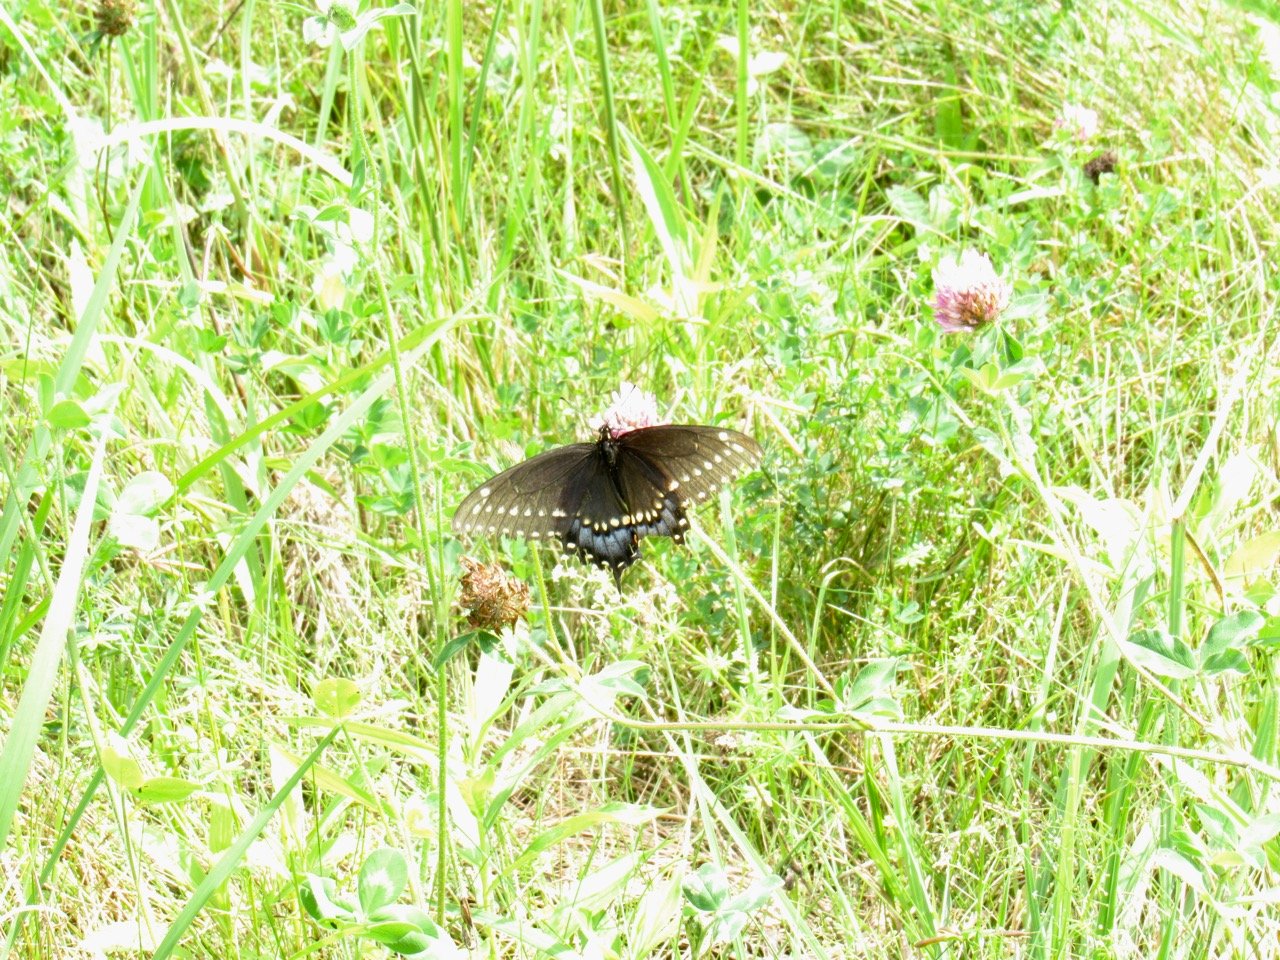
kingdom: Animalia
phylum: Arthropoda
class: Insecta
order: Lepidoptera
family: Papilionidae
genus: Papilio
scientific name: Papilio polyxenes
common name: Black Swallowtail
